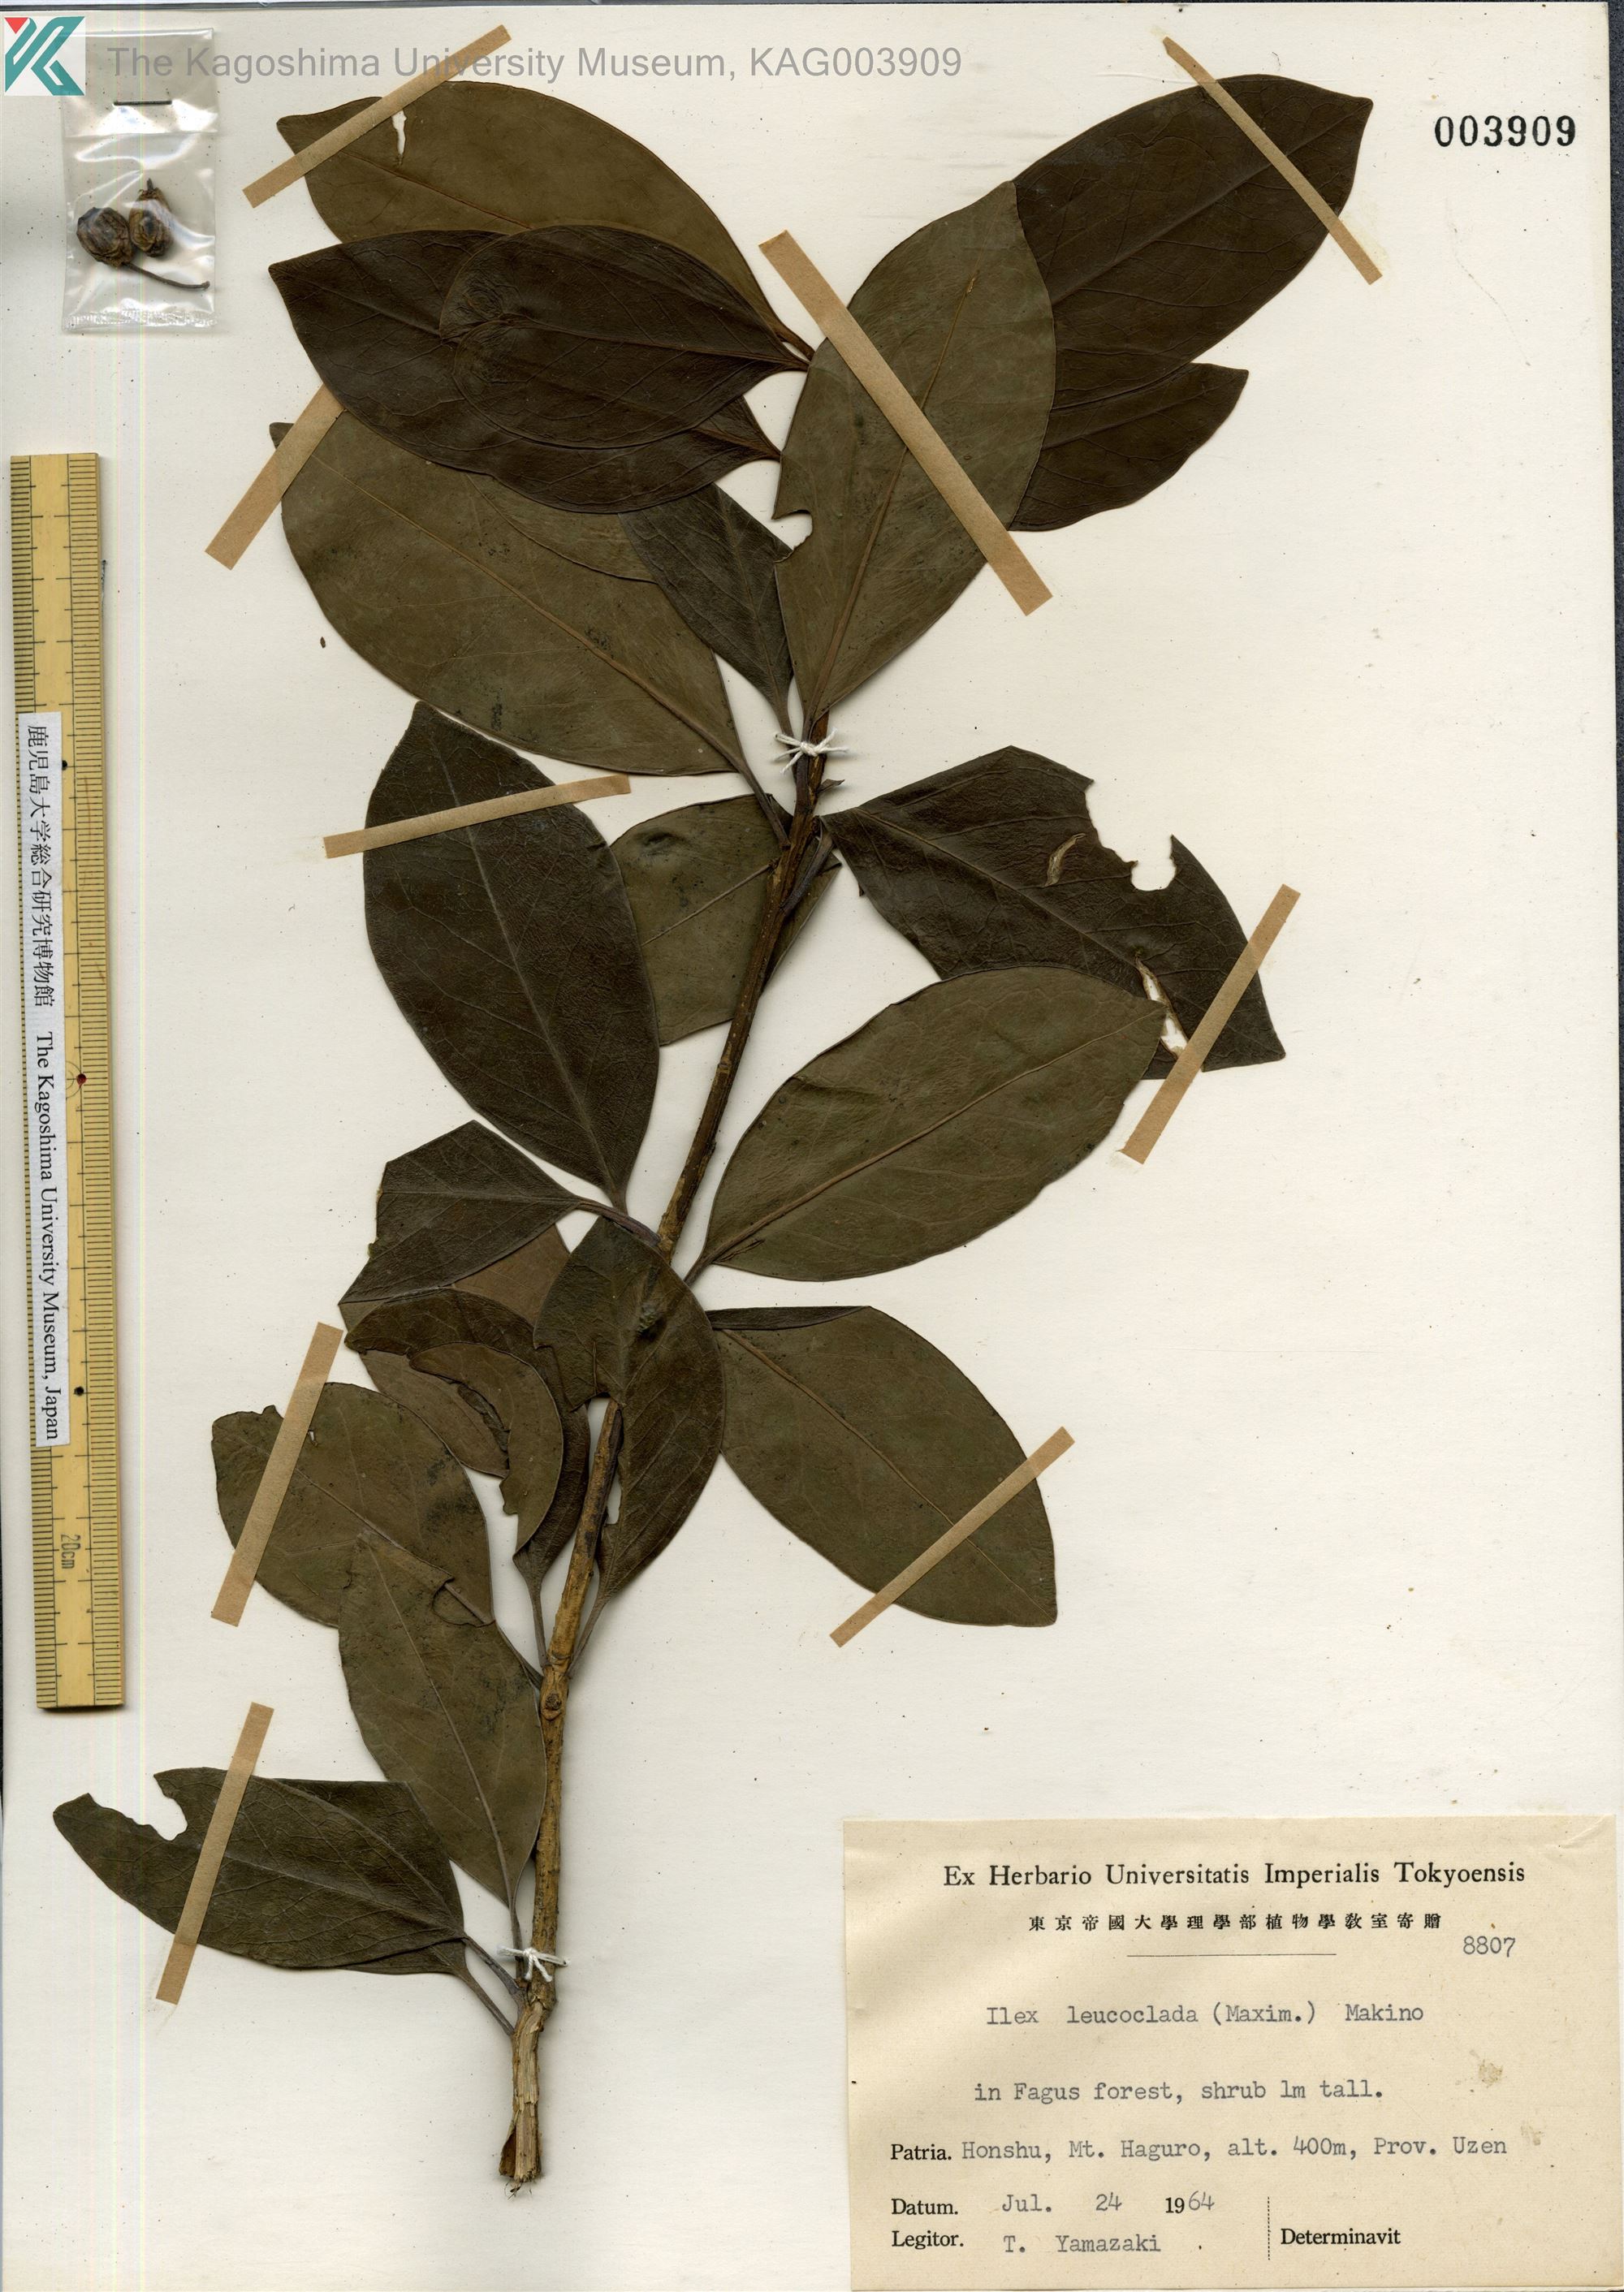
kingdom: Plantae
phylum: Tracheophyta
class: Magnoliopsida
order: Aquifoliales
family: Aquifoliaceae
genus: Ilex
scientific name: Ilex leucoclada
